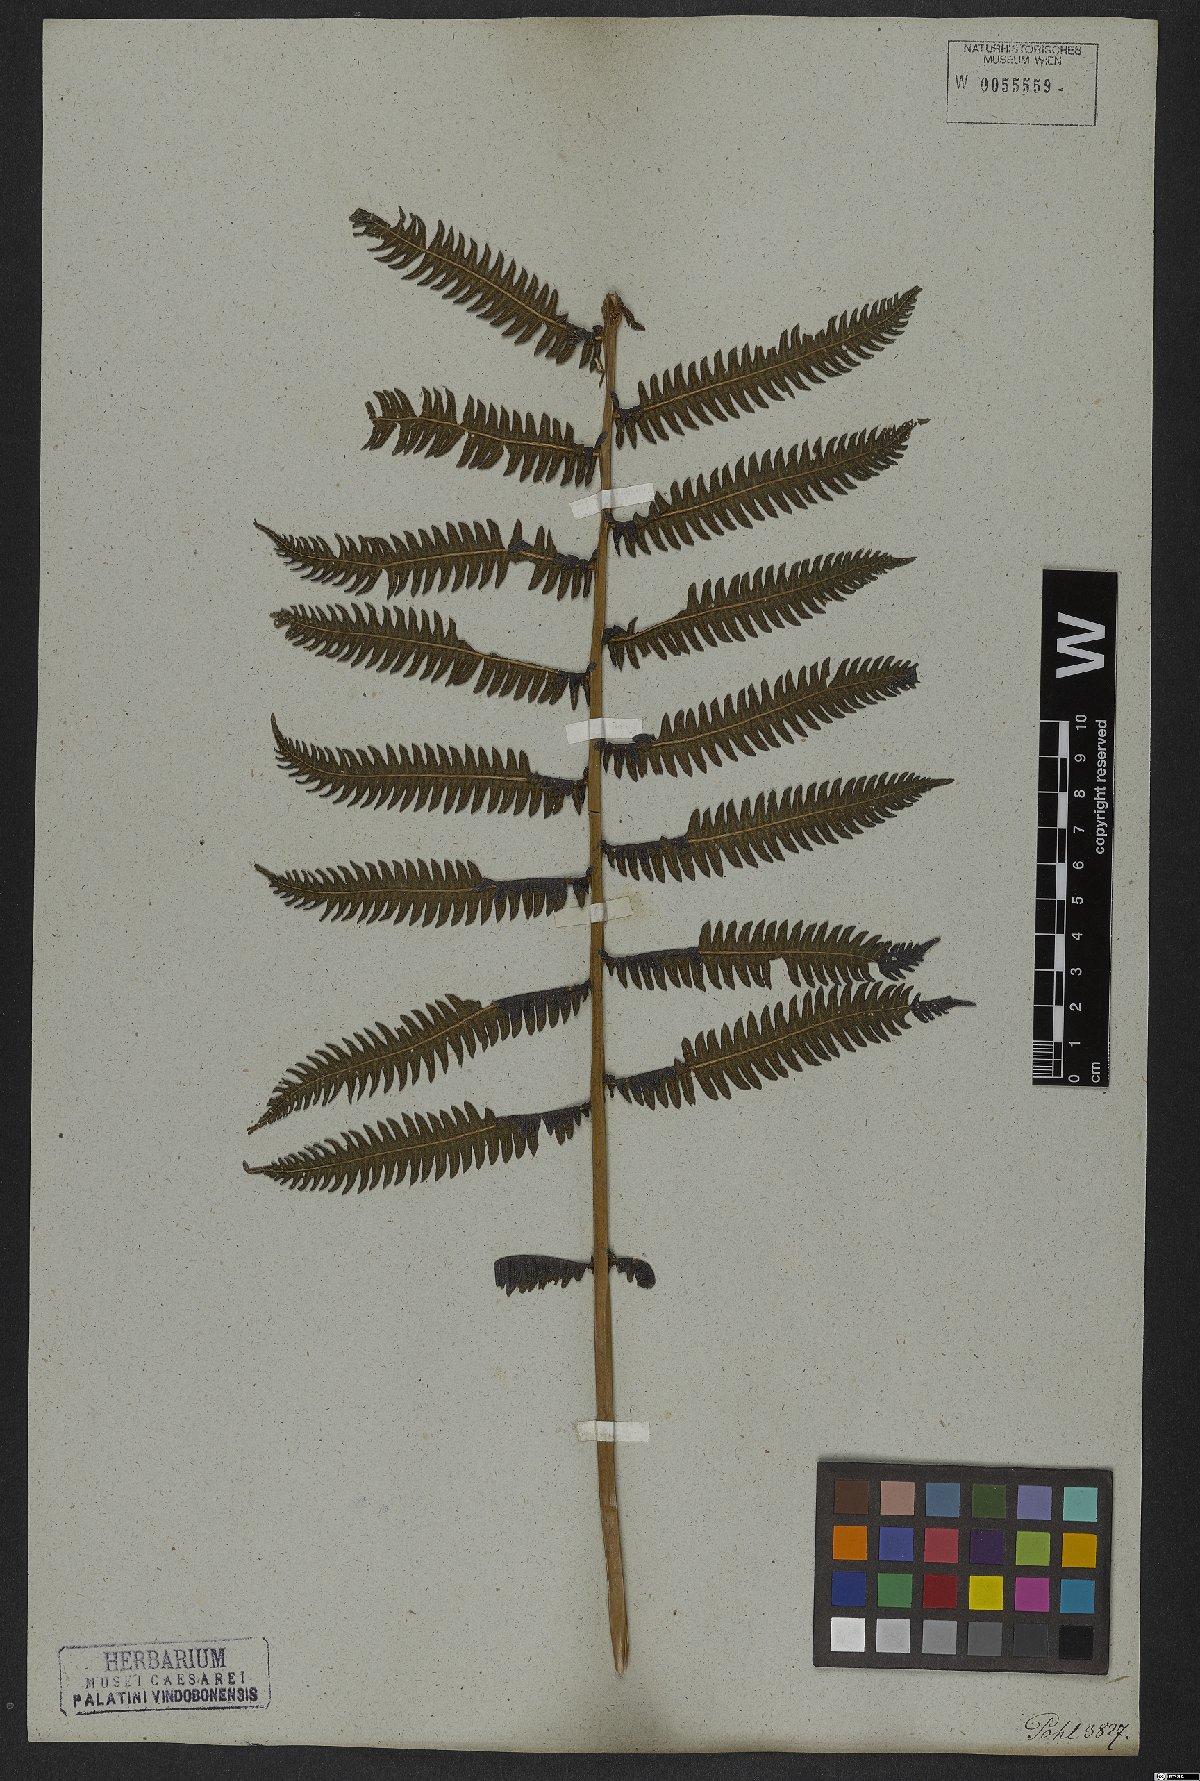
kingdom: Plantae
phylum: Tracheophyta
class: Polypodiopsida
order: Polypodiales
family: Thelypteridaceae
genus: Goniopteris
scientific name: Goniopteris lugubris
